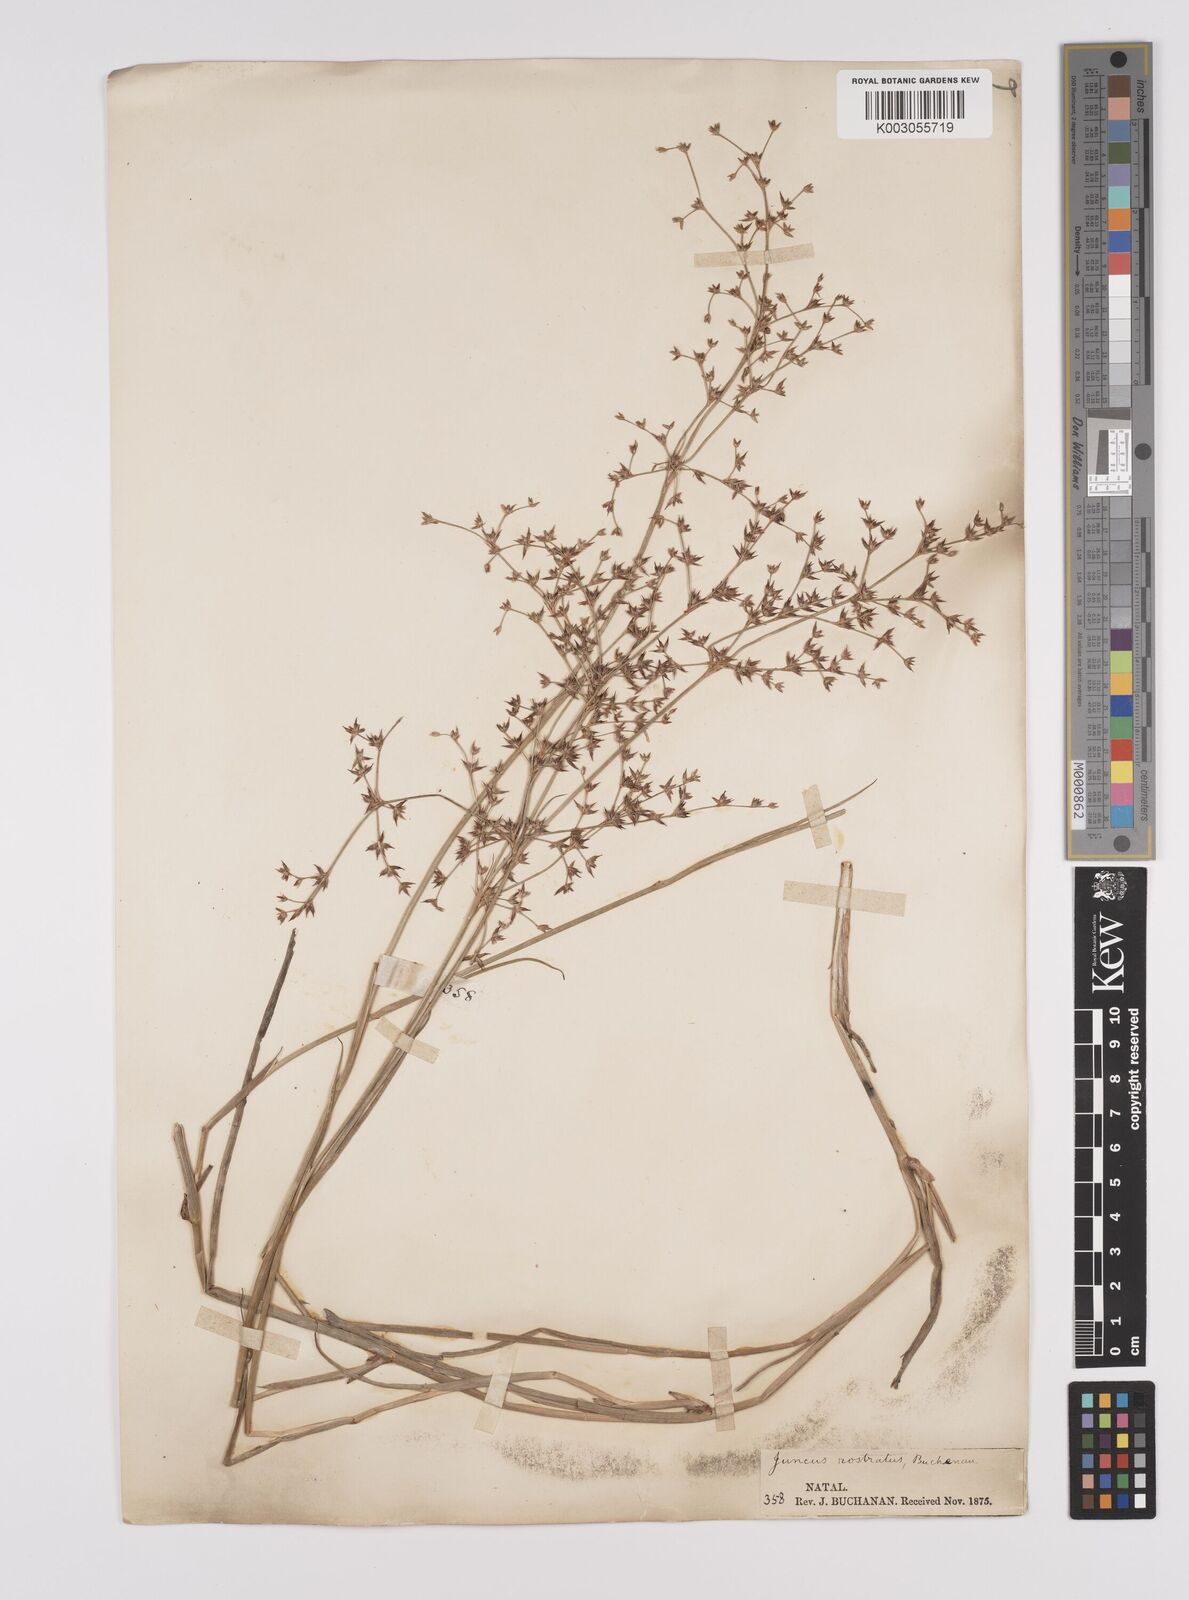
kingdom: Plantae
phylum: Tracheophyta
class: Liliopsida
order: Poales
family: Juncaceae
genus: Juncus
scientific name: Juncus exsertus
